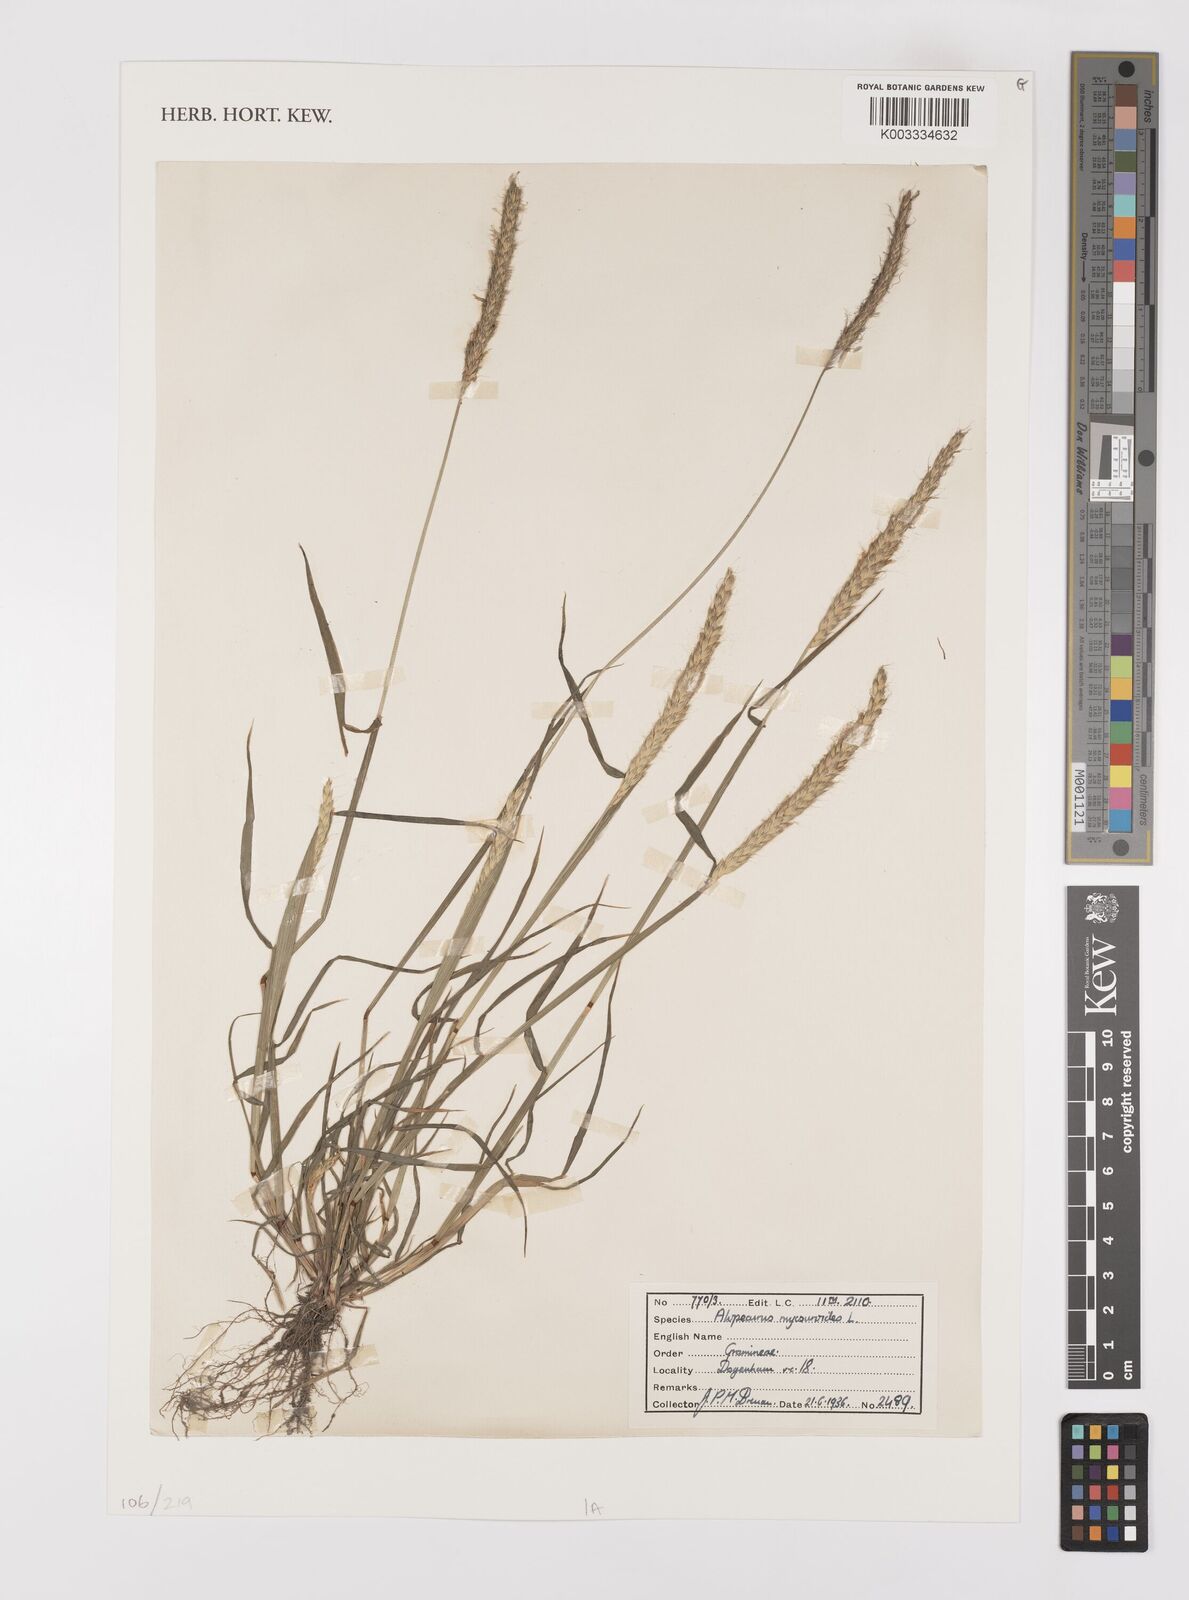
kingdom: Plantae
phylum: Tracheophyta
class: Liliopsida
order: Poales
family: Poaceae
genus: Alopecurus
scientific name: Alopecurus myosuroides
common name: Black-grass
